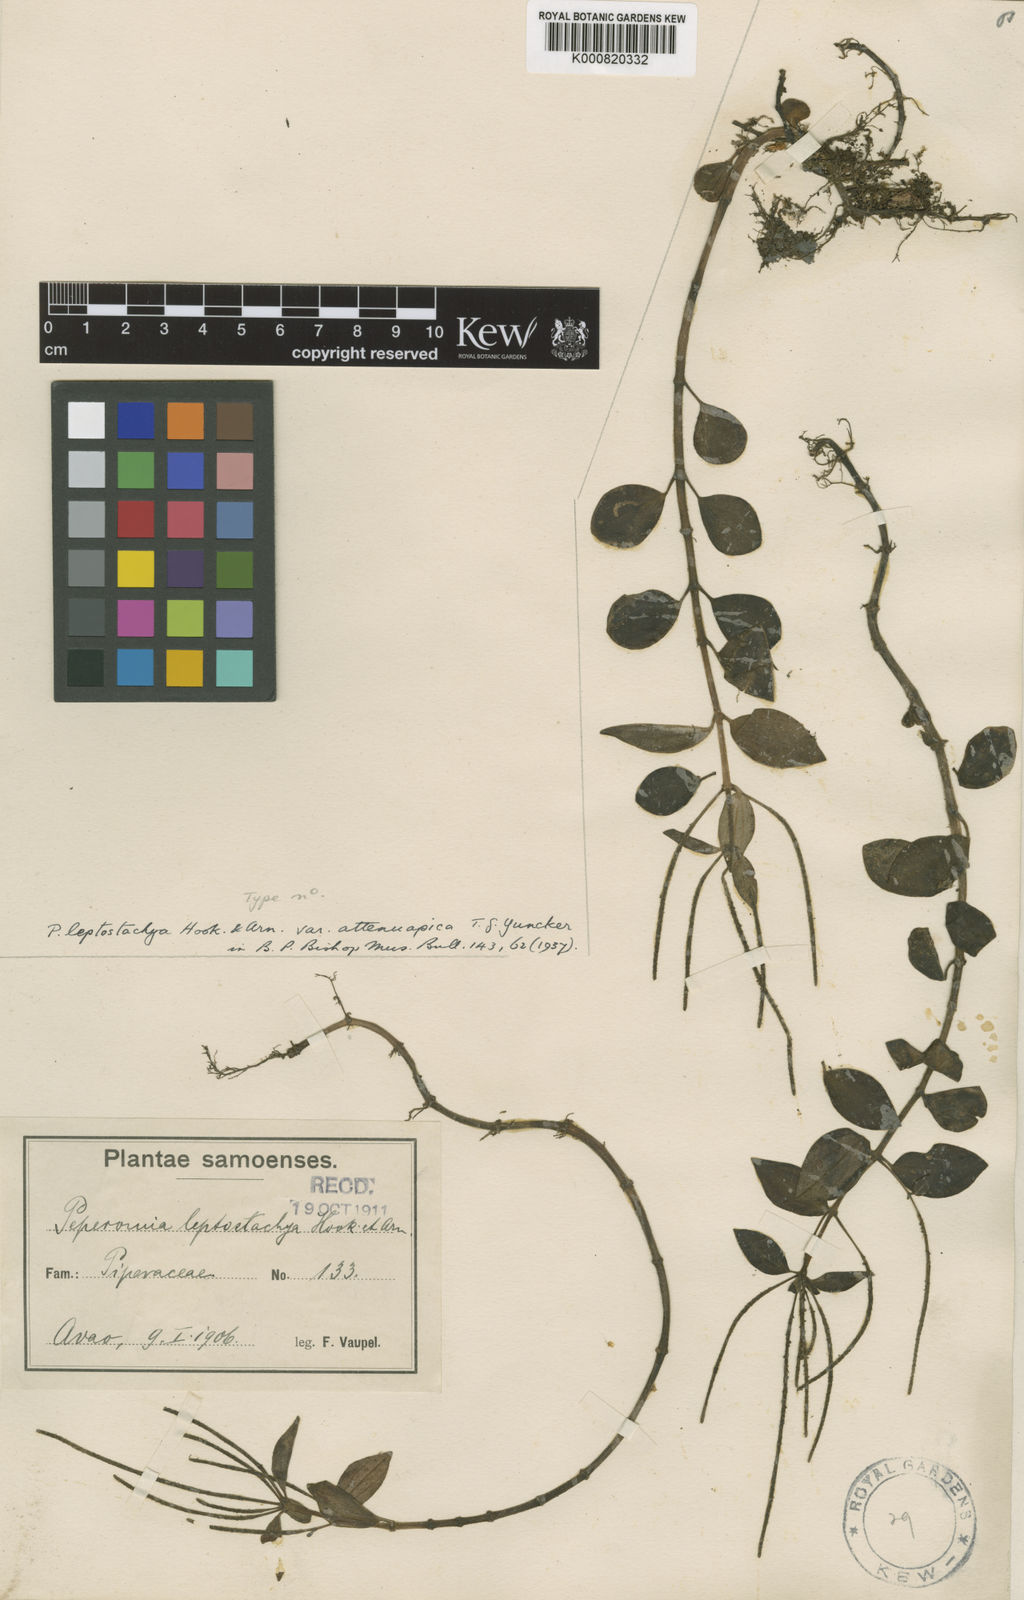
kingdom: Plantae
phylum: Tracheophyta
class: Magnoliopsida
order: Piperales
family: Piperaceae
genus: Peperomia
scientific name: Peperomia leptostachya
